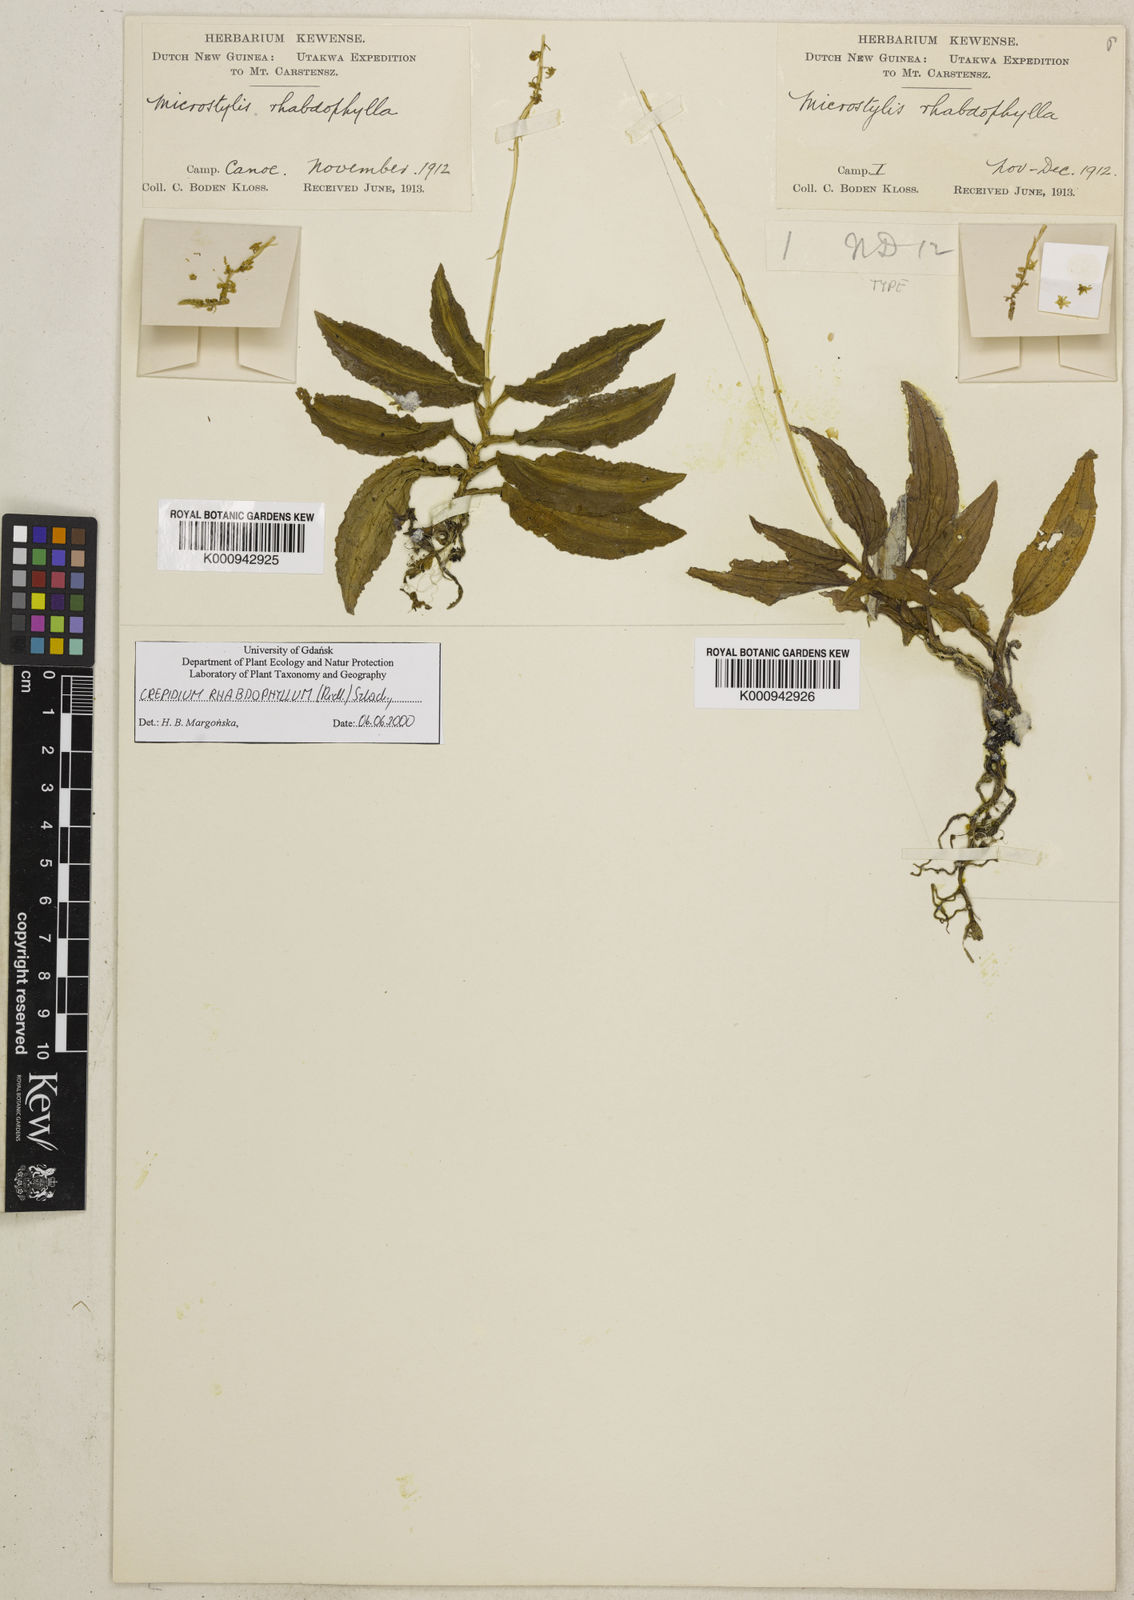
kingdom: Plantae
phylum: Tracheophyta
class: Liliopsida
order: Asparagales
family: Orchidaceae
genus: Crepidium
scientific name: Crepidium rhabdophyllum
